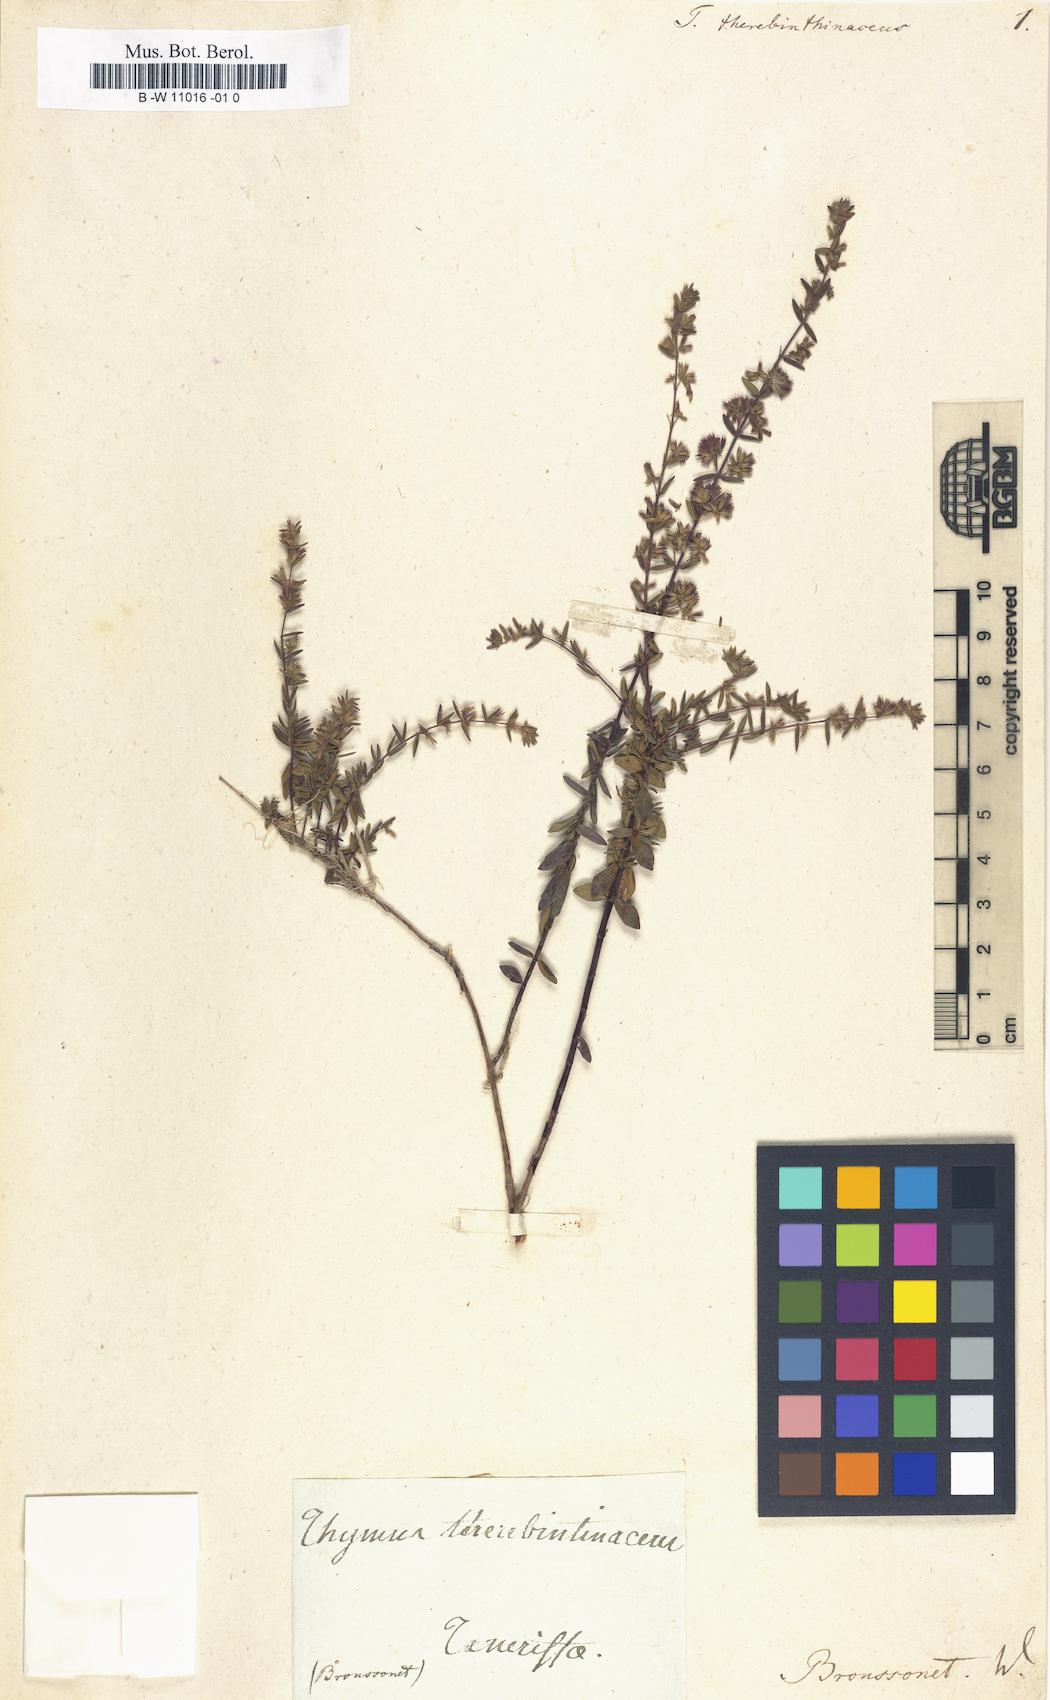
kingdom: Plantae
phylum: Tracheophyta
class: Magnoliopsida
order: Lamiales
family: Lamiaceae
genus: Micromeria
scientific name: Micromeria teneriffae
